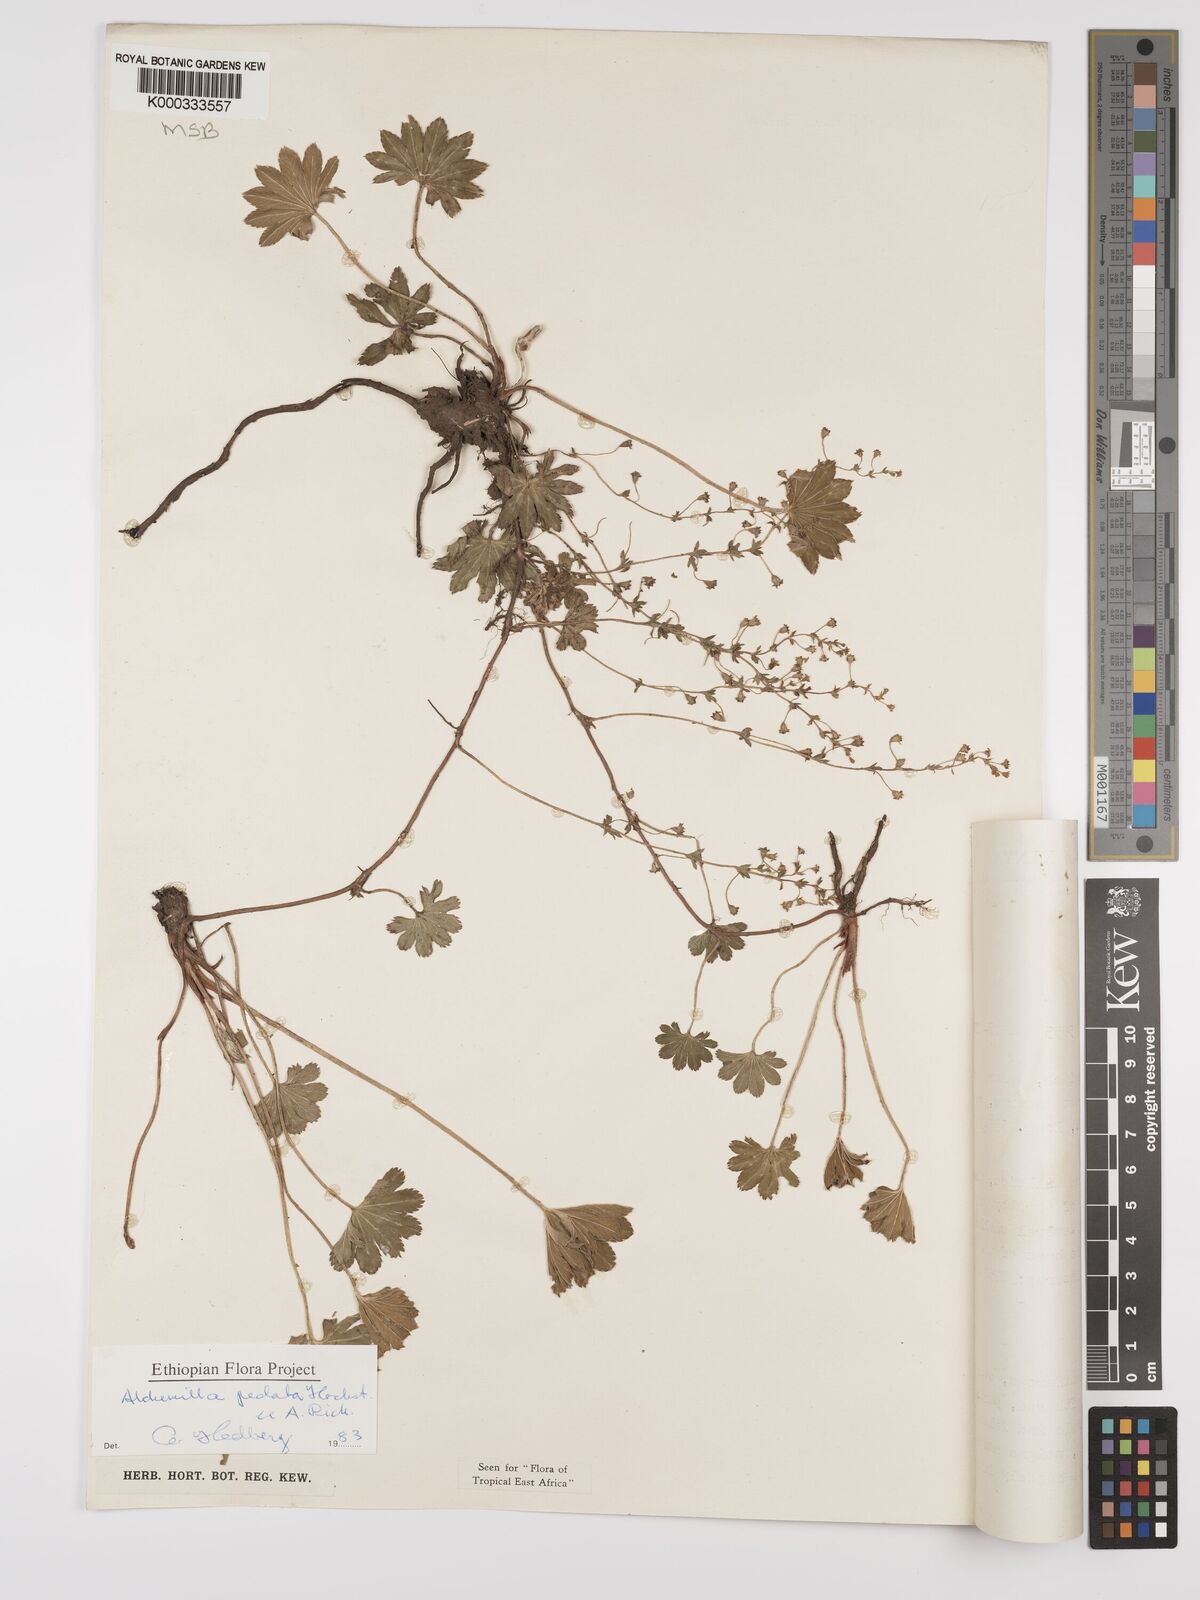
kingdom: Plantae
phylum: Tracheophyta
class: Magnoliopsida
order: Rosales
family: Rosaceae
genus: Alchemilla
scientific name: Alchemilla pedata
